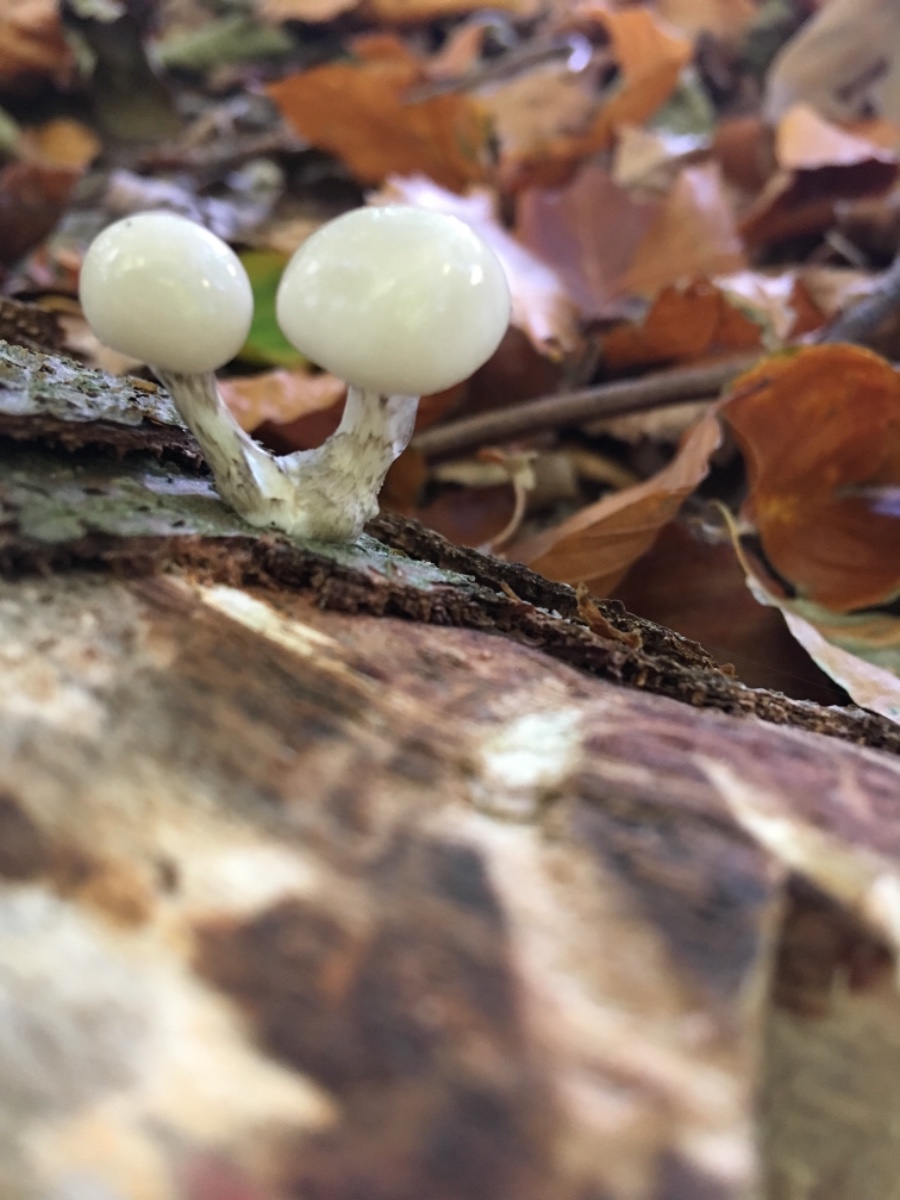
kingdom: Fungi
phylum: Basidiomycota
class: Agaricomycetes
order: Agaricales
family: Physalacriaceae
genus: Mucidula
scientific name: Mucidula mucida
